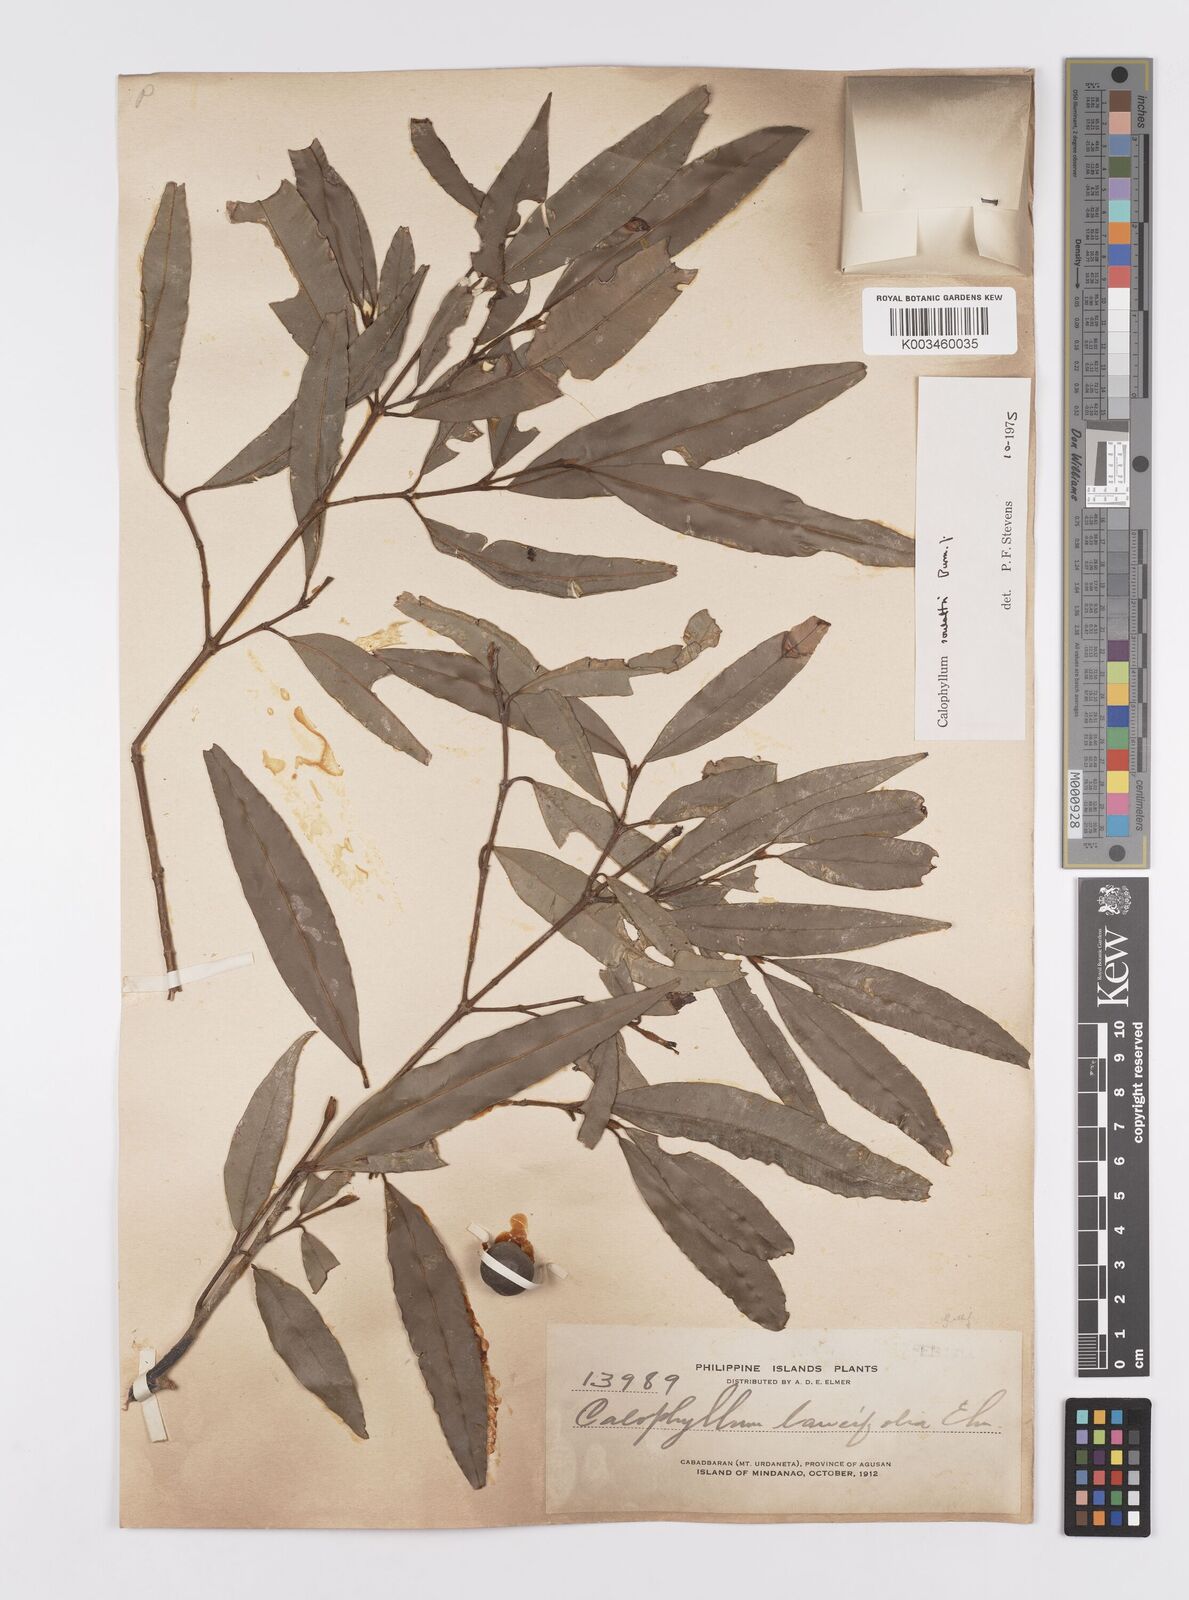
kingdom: Plantae
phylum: Tracheophyta
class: Magnoliopsida
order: Malpighiales
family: Calophyllaceae
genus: Calophyllum
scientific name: Calophyllum soulattri
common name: Bitangoor boonot
